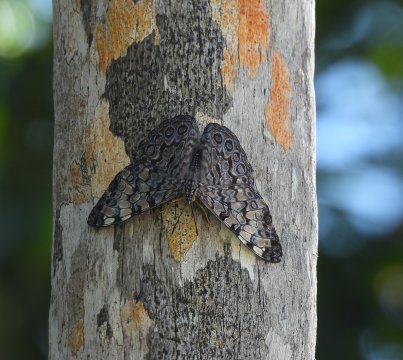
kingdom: Animalia
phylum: Arthropoda
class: Insecta
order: Lepidoptera
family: Nymphalidae
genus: Hamadryas
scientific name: Hamadryas guatemalena
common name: Guatemalan Cracker
